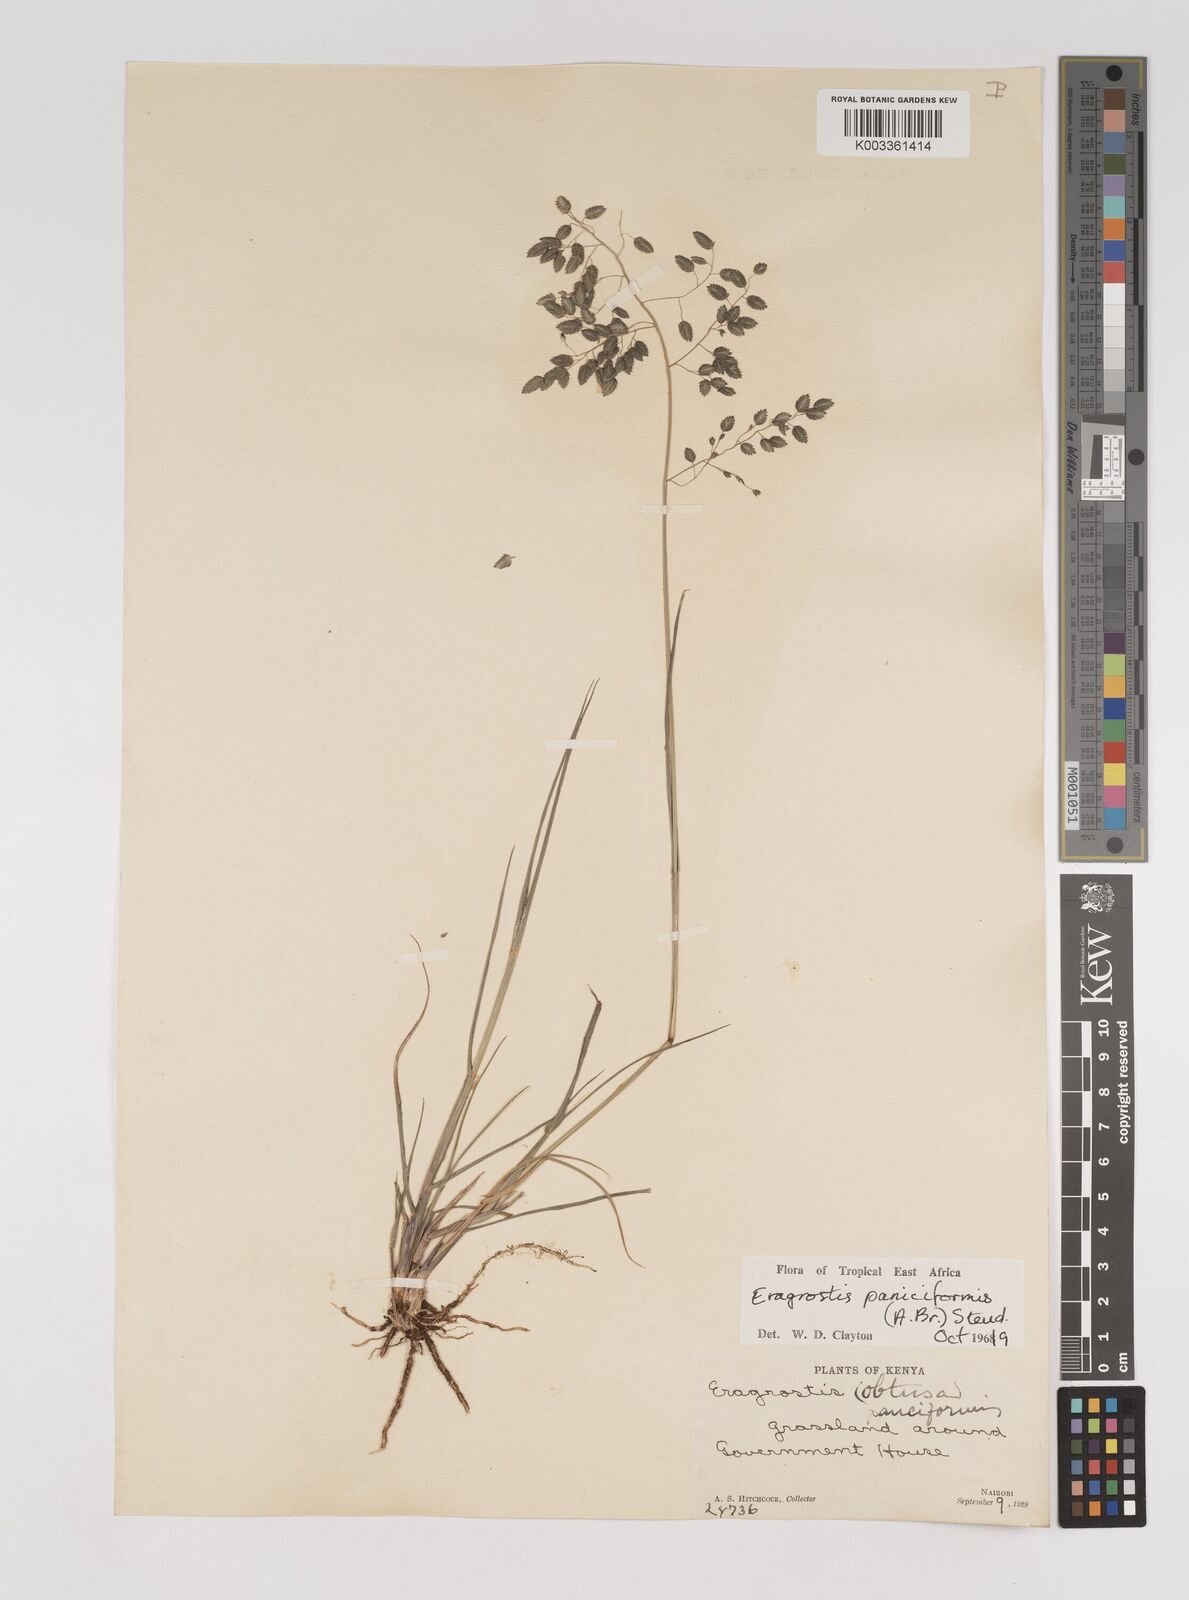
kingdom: Plantae
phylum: Tracheophyta
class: Liliopsida
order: Poales
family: Poaceae
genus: Eragrostis
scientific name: Eragrostis paniciformis
